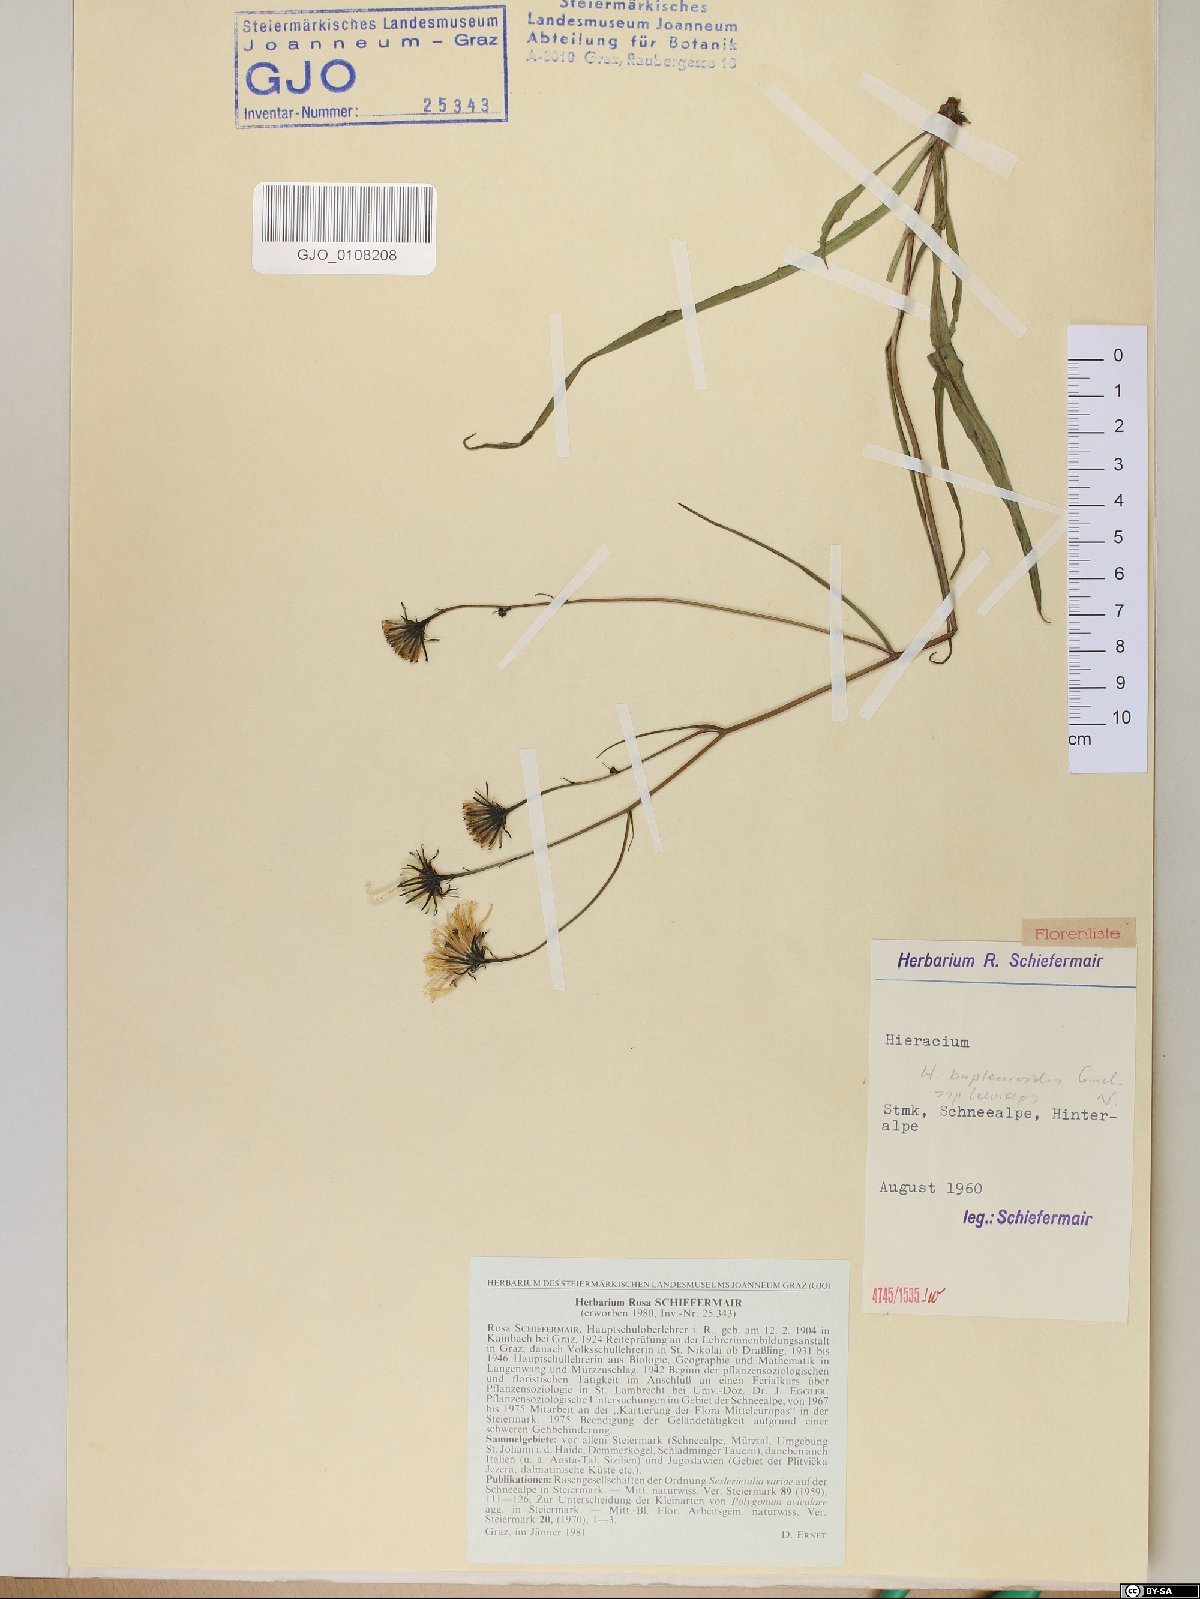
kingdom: Plantae
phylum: Tracheophyta
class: Magnoliopsida
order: Asterales
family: Asteraceae
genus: Hieracium
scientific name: Hieracium bupleuroides
